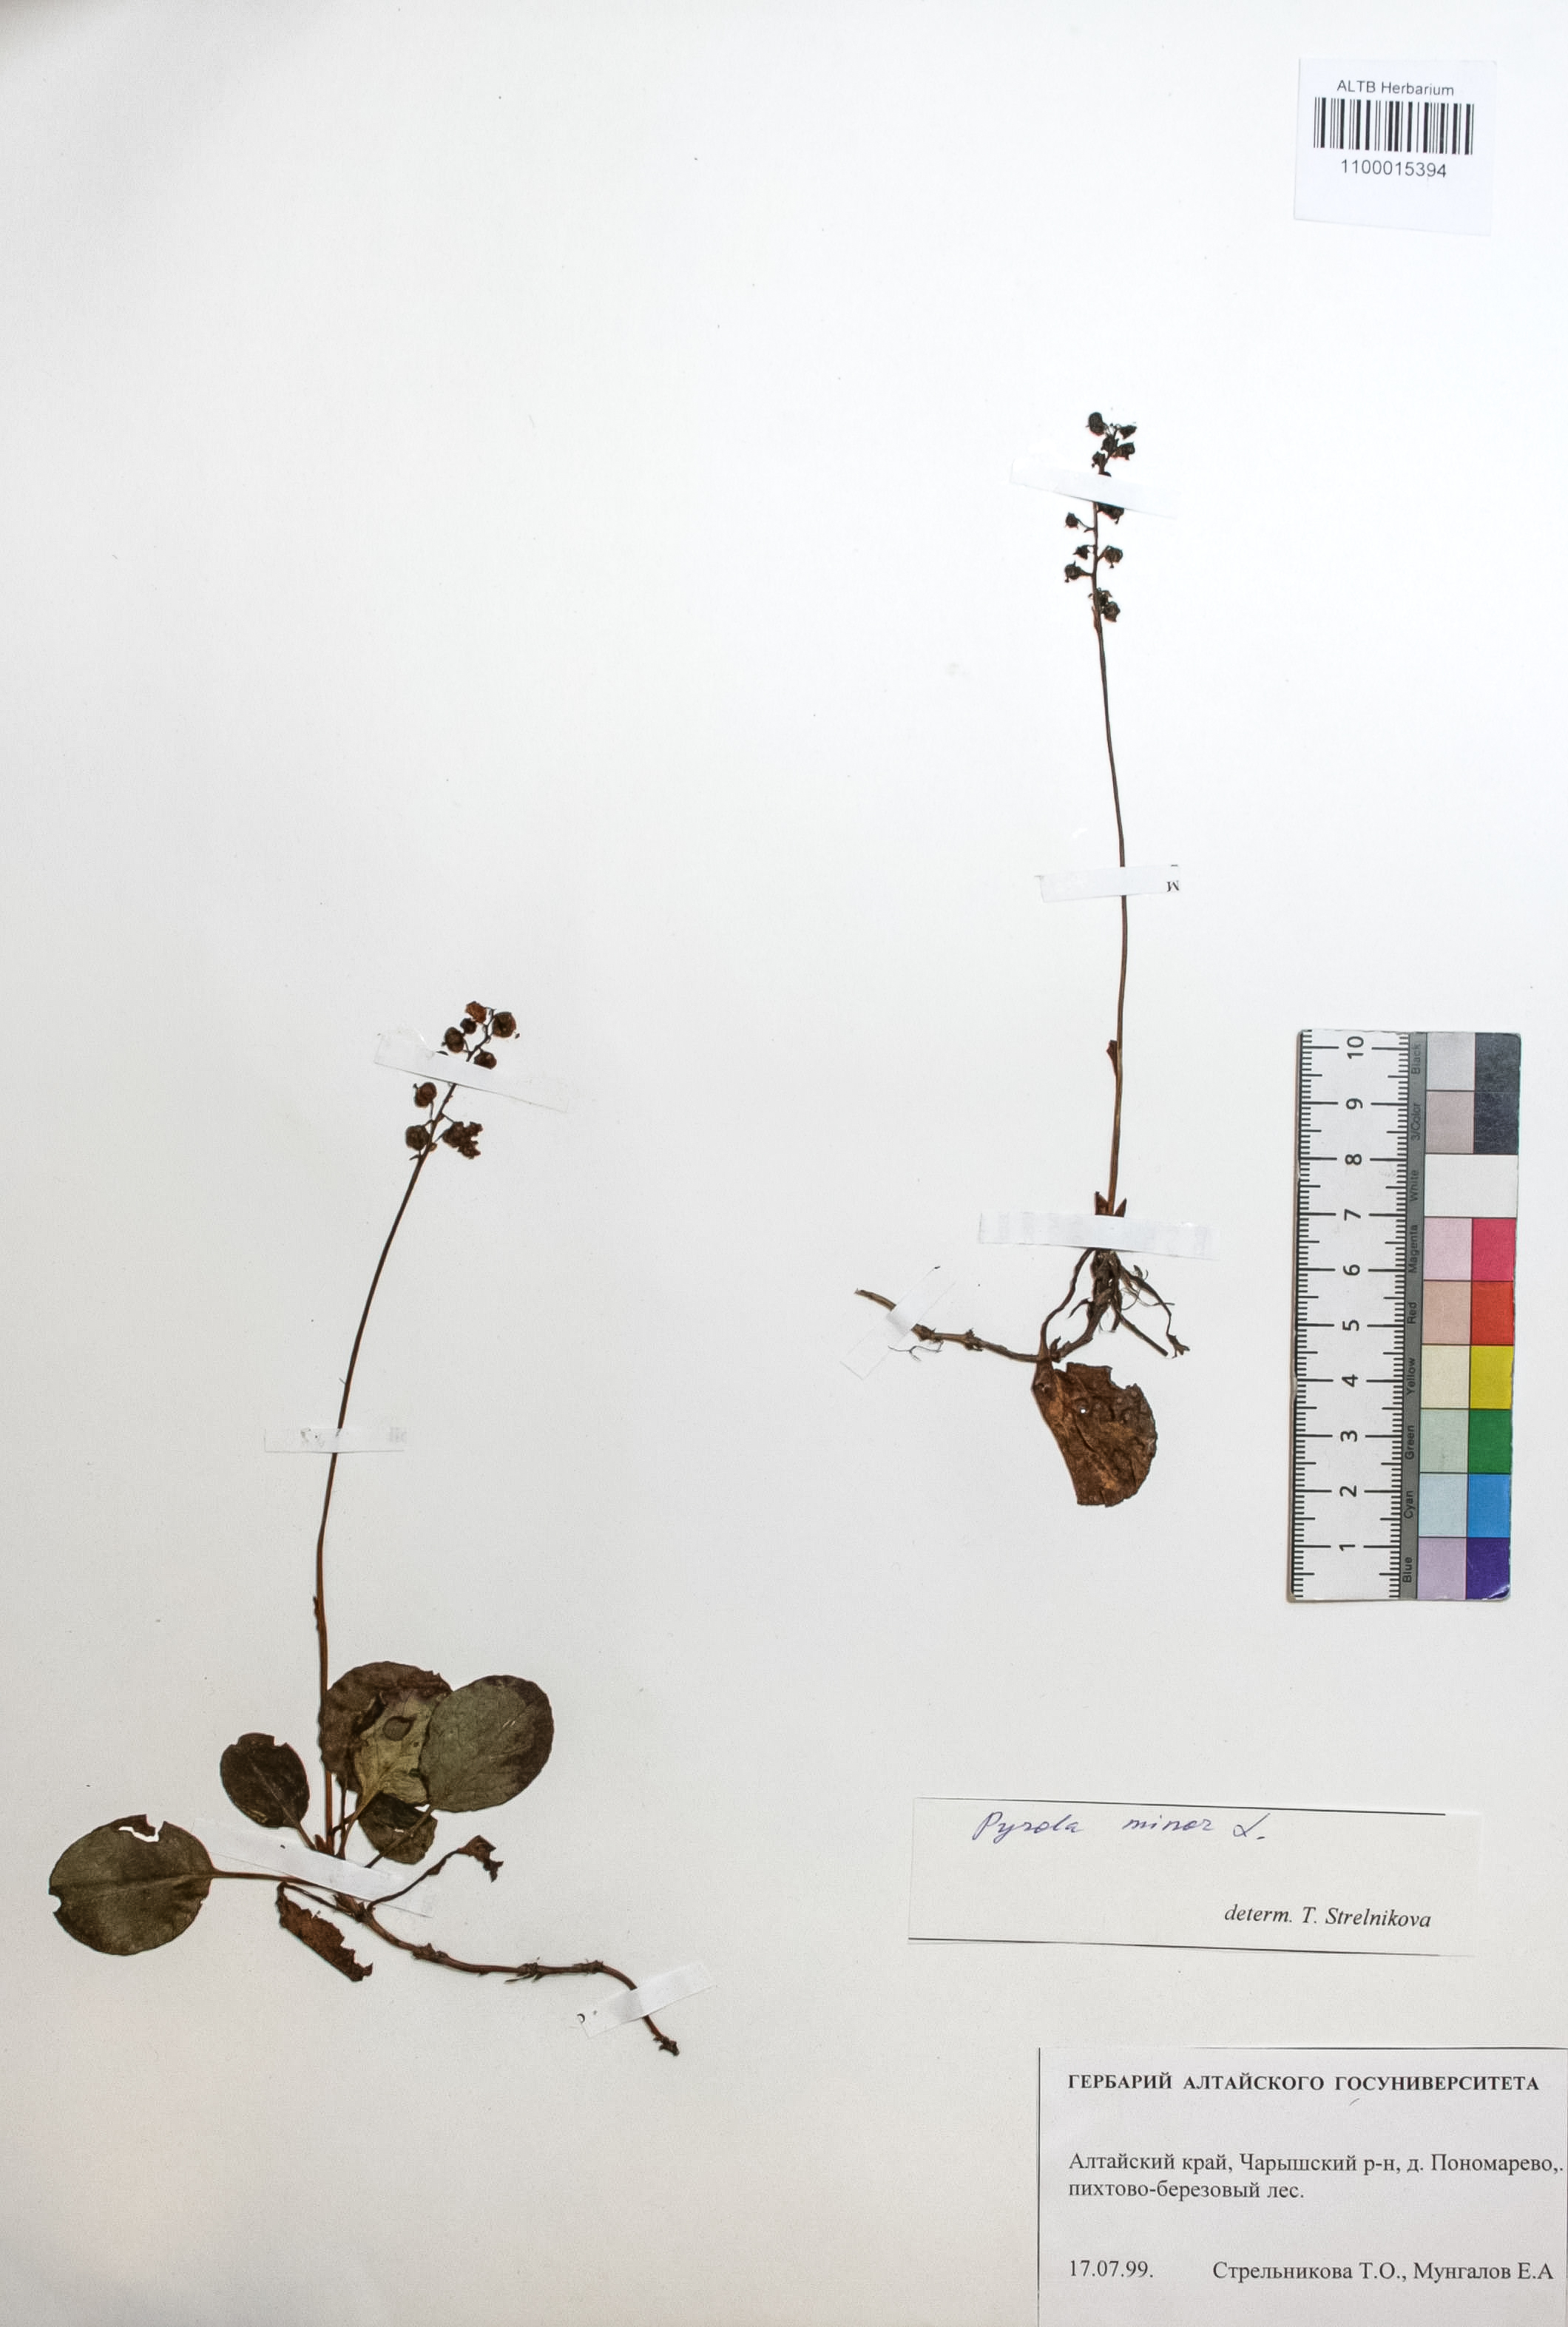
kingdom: Plantae
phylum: Tracheophyta
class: Magnoliopsida
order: Ericales
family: Ericaceae
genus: Pyrola
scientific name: Pyrola minor
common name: Common wintergreen
